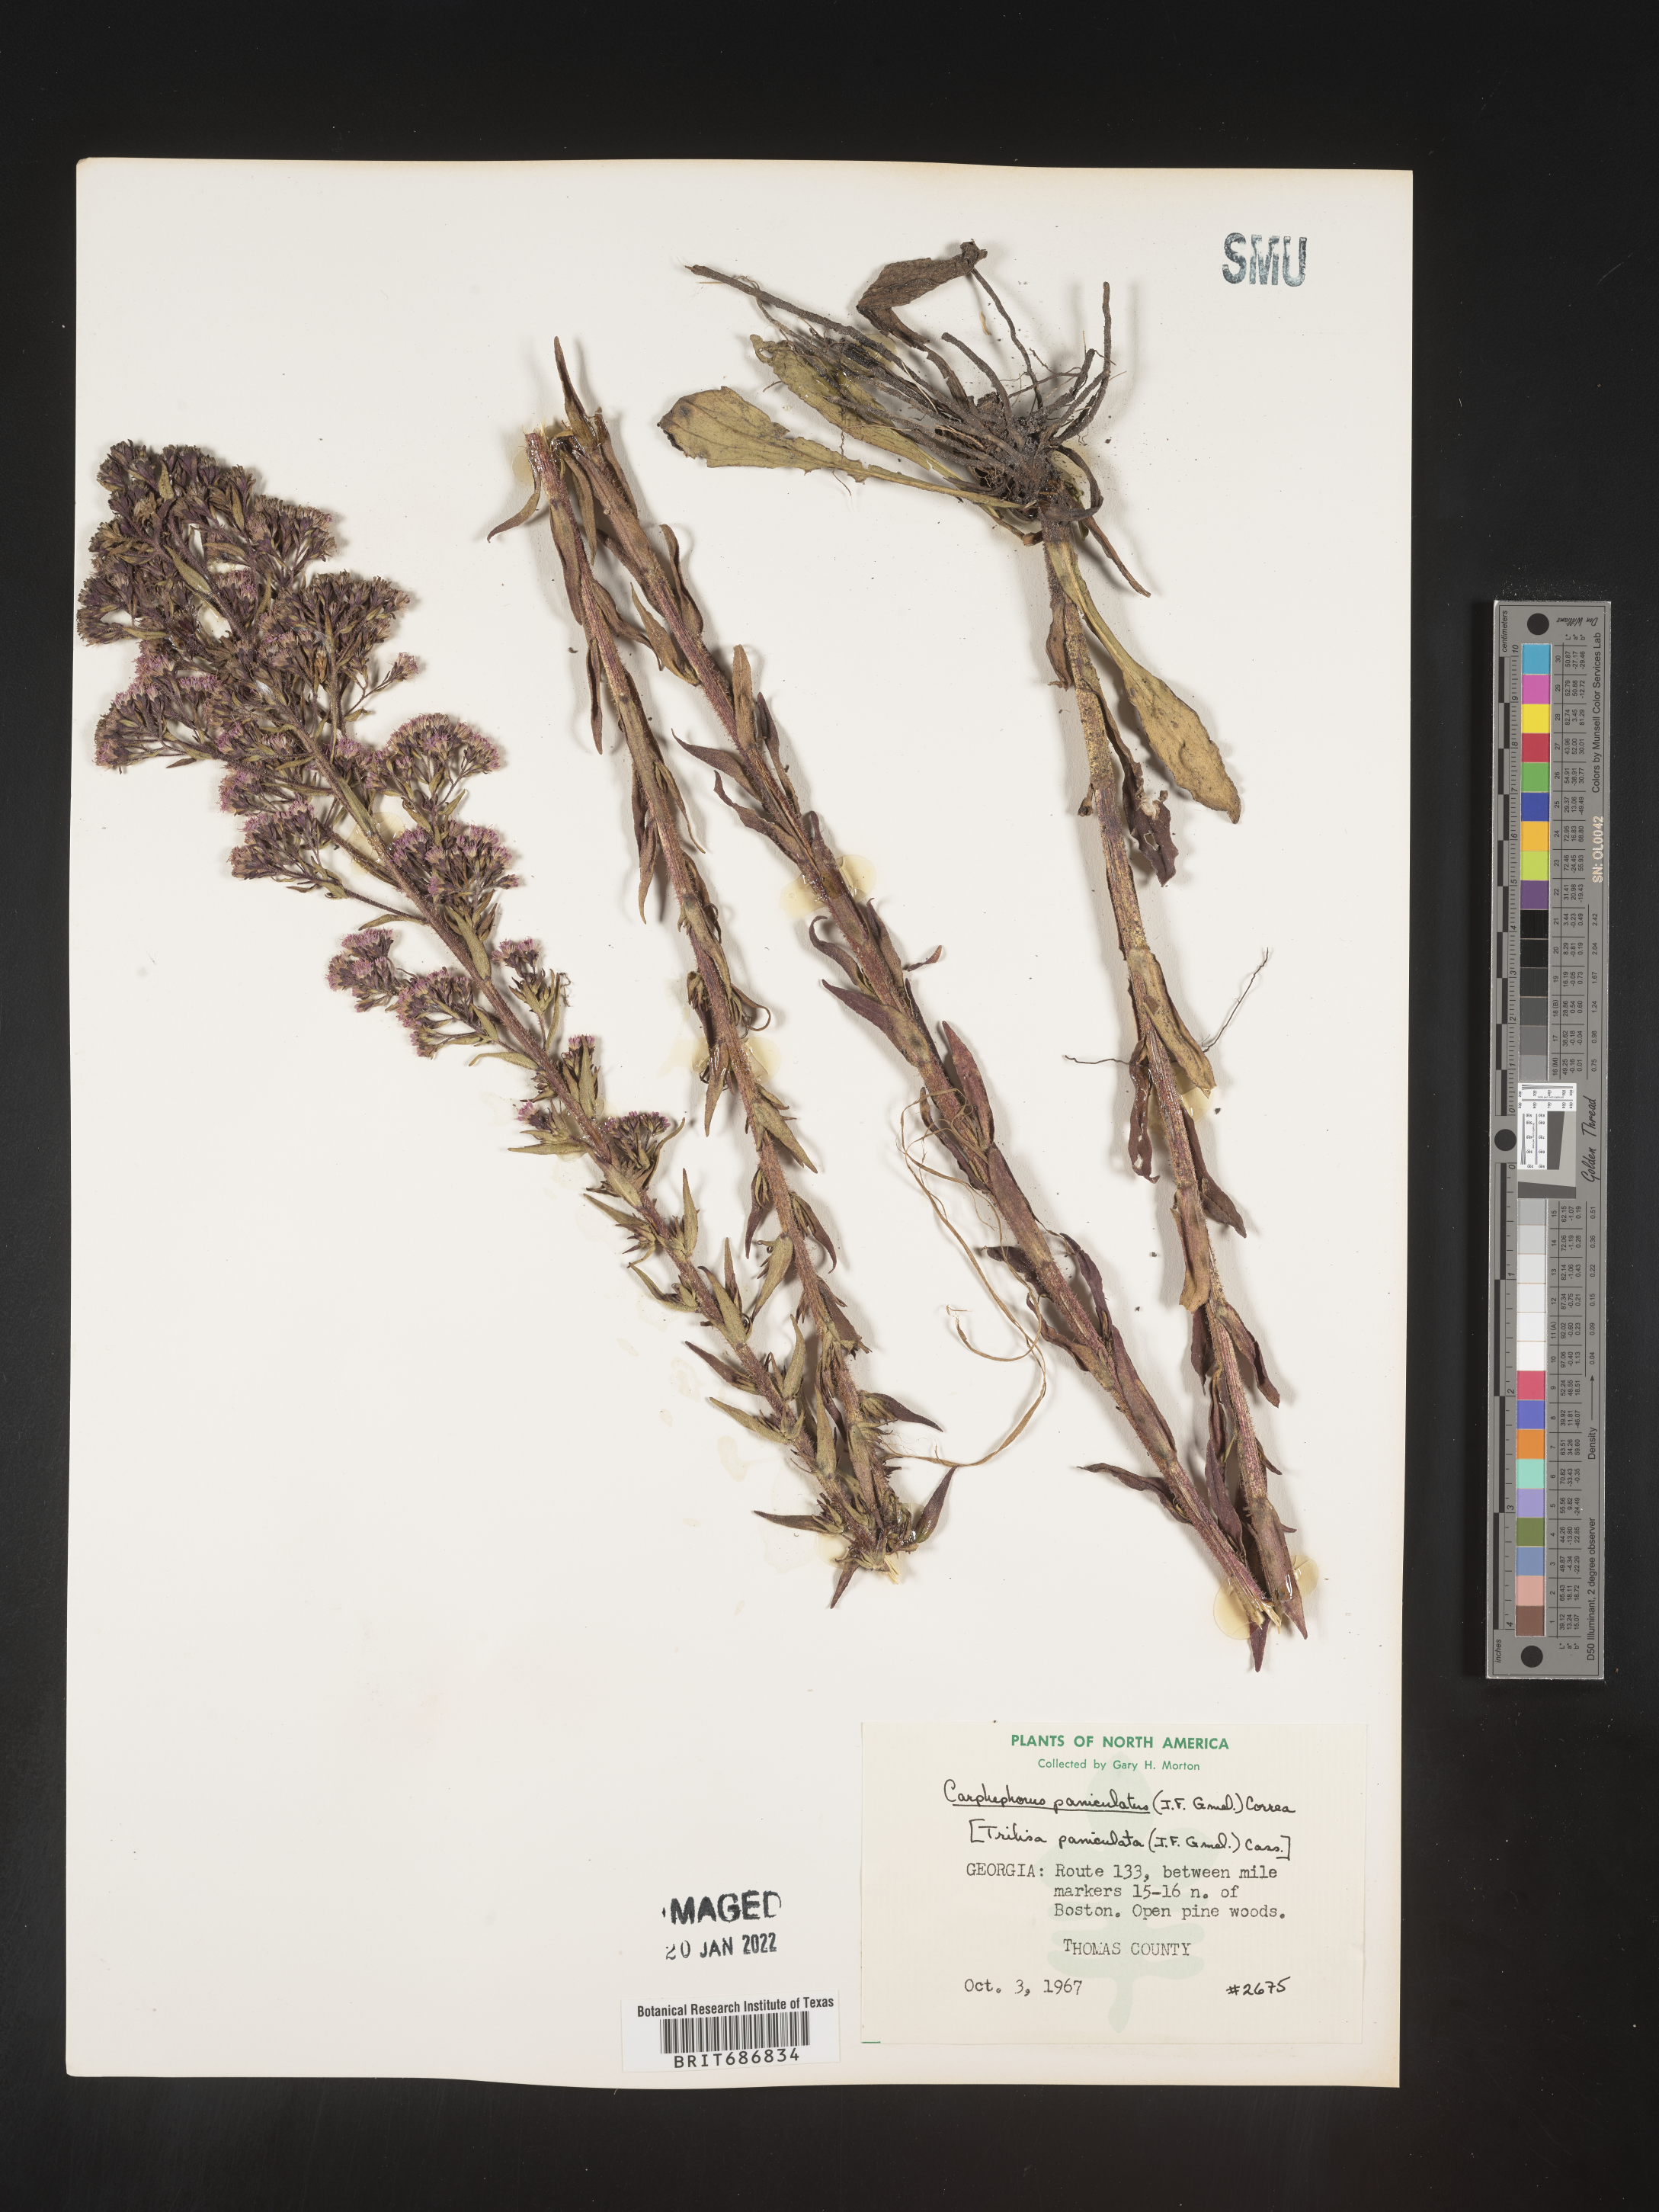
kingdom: Plantae
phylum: Tracheophyta
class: Magnoliopsida
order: Asterales
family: Asteraceae
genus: Carphephorus
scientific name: Carphephorus paniculatus
